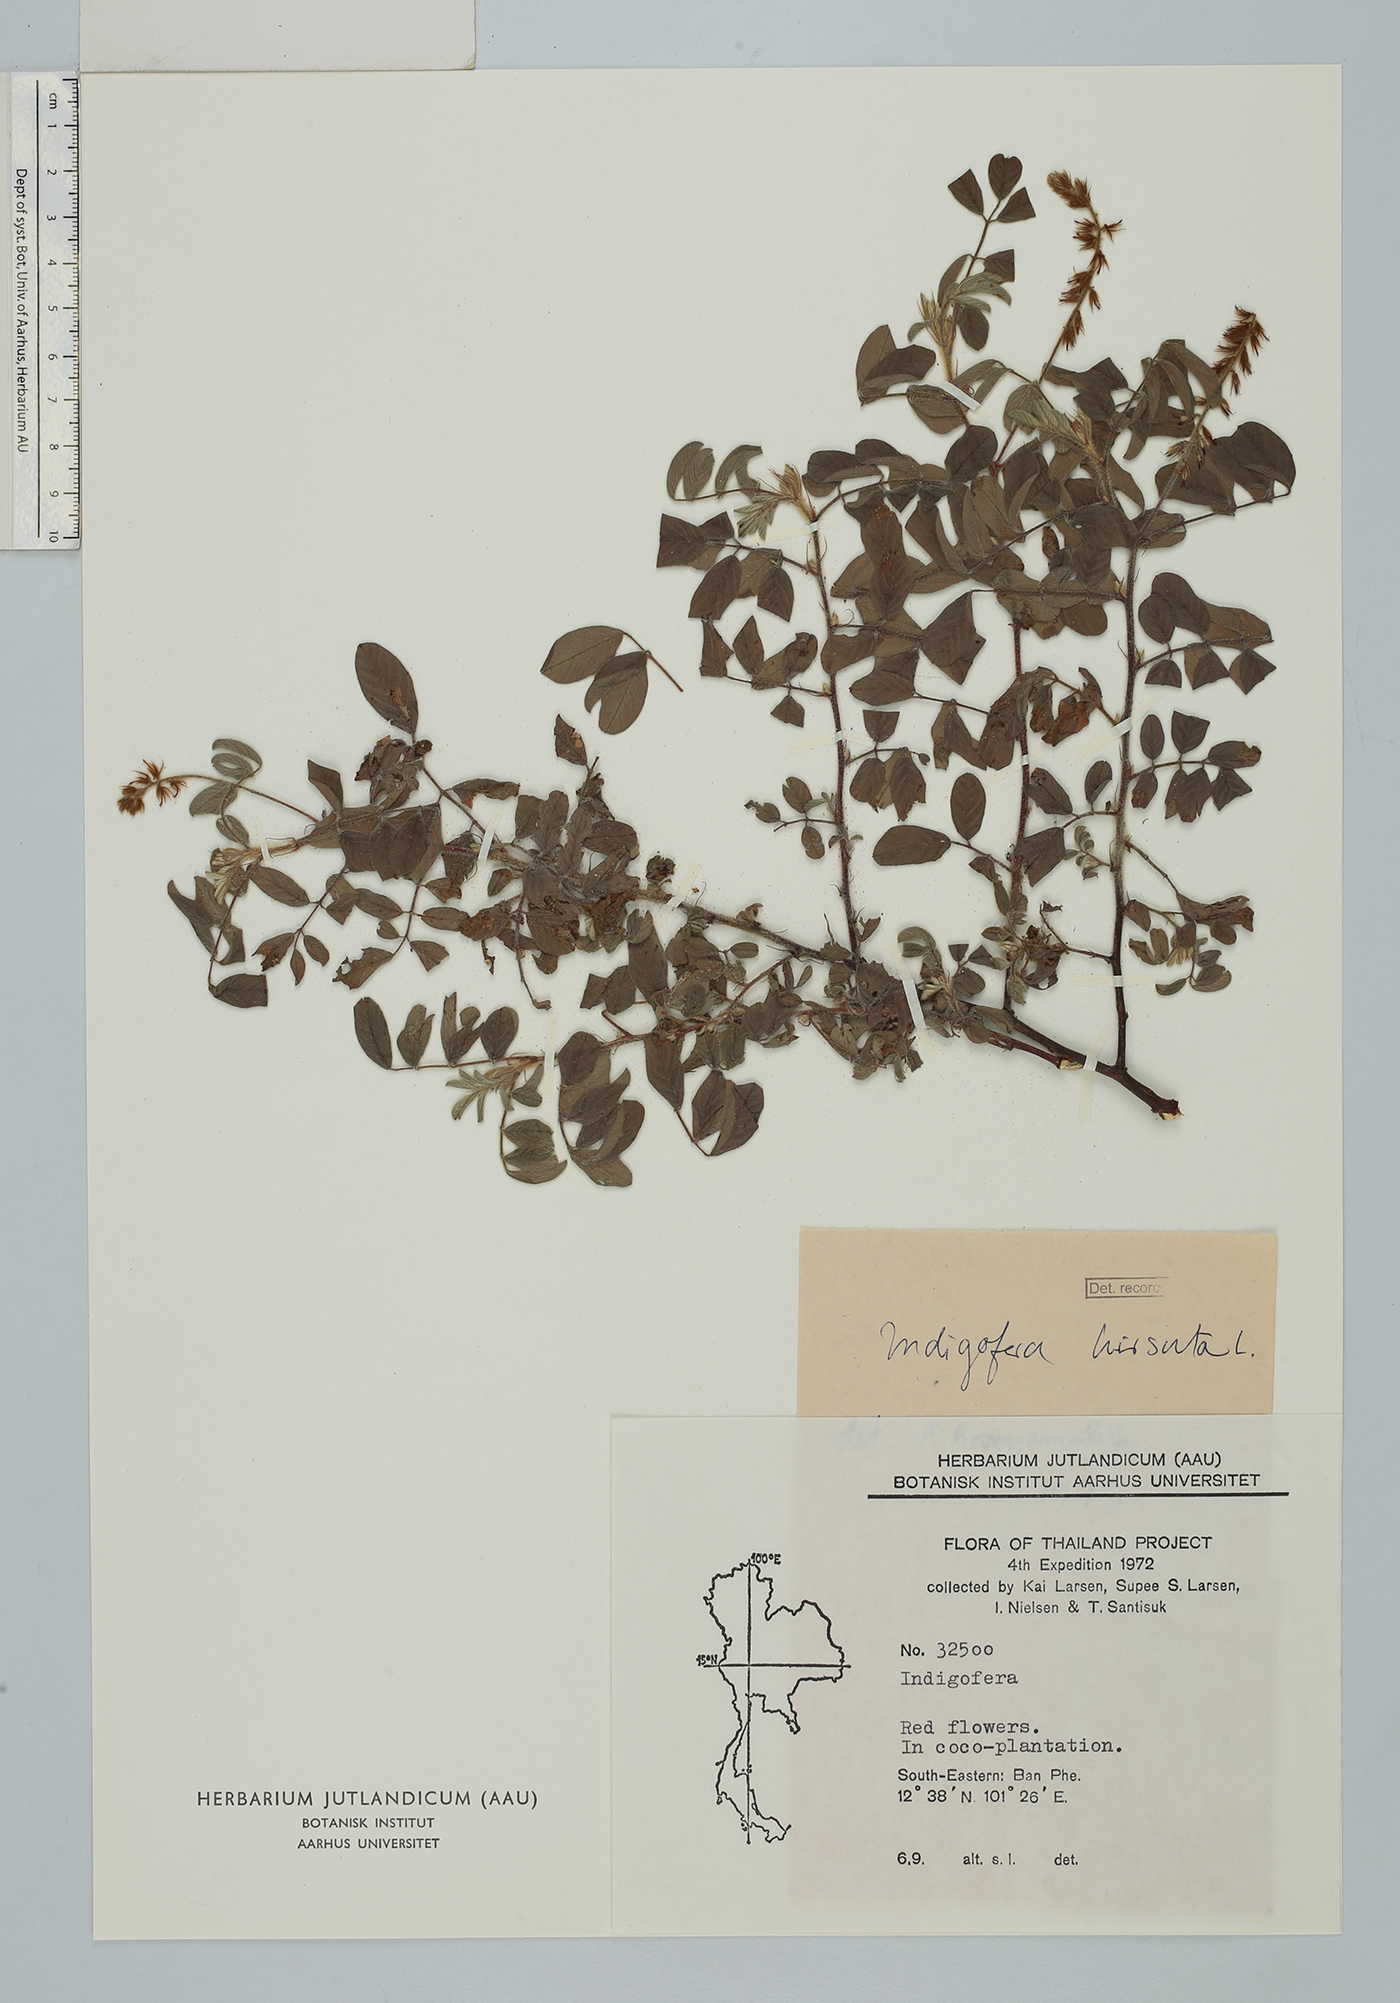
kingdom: Plantae
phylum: Tracheophyta
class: Magnoliopsida
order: Fabales
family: Fabaceae
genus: Indigofera
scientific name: Indigofera hirsuta
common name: Hairy indigo
